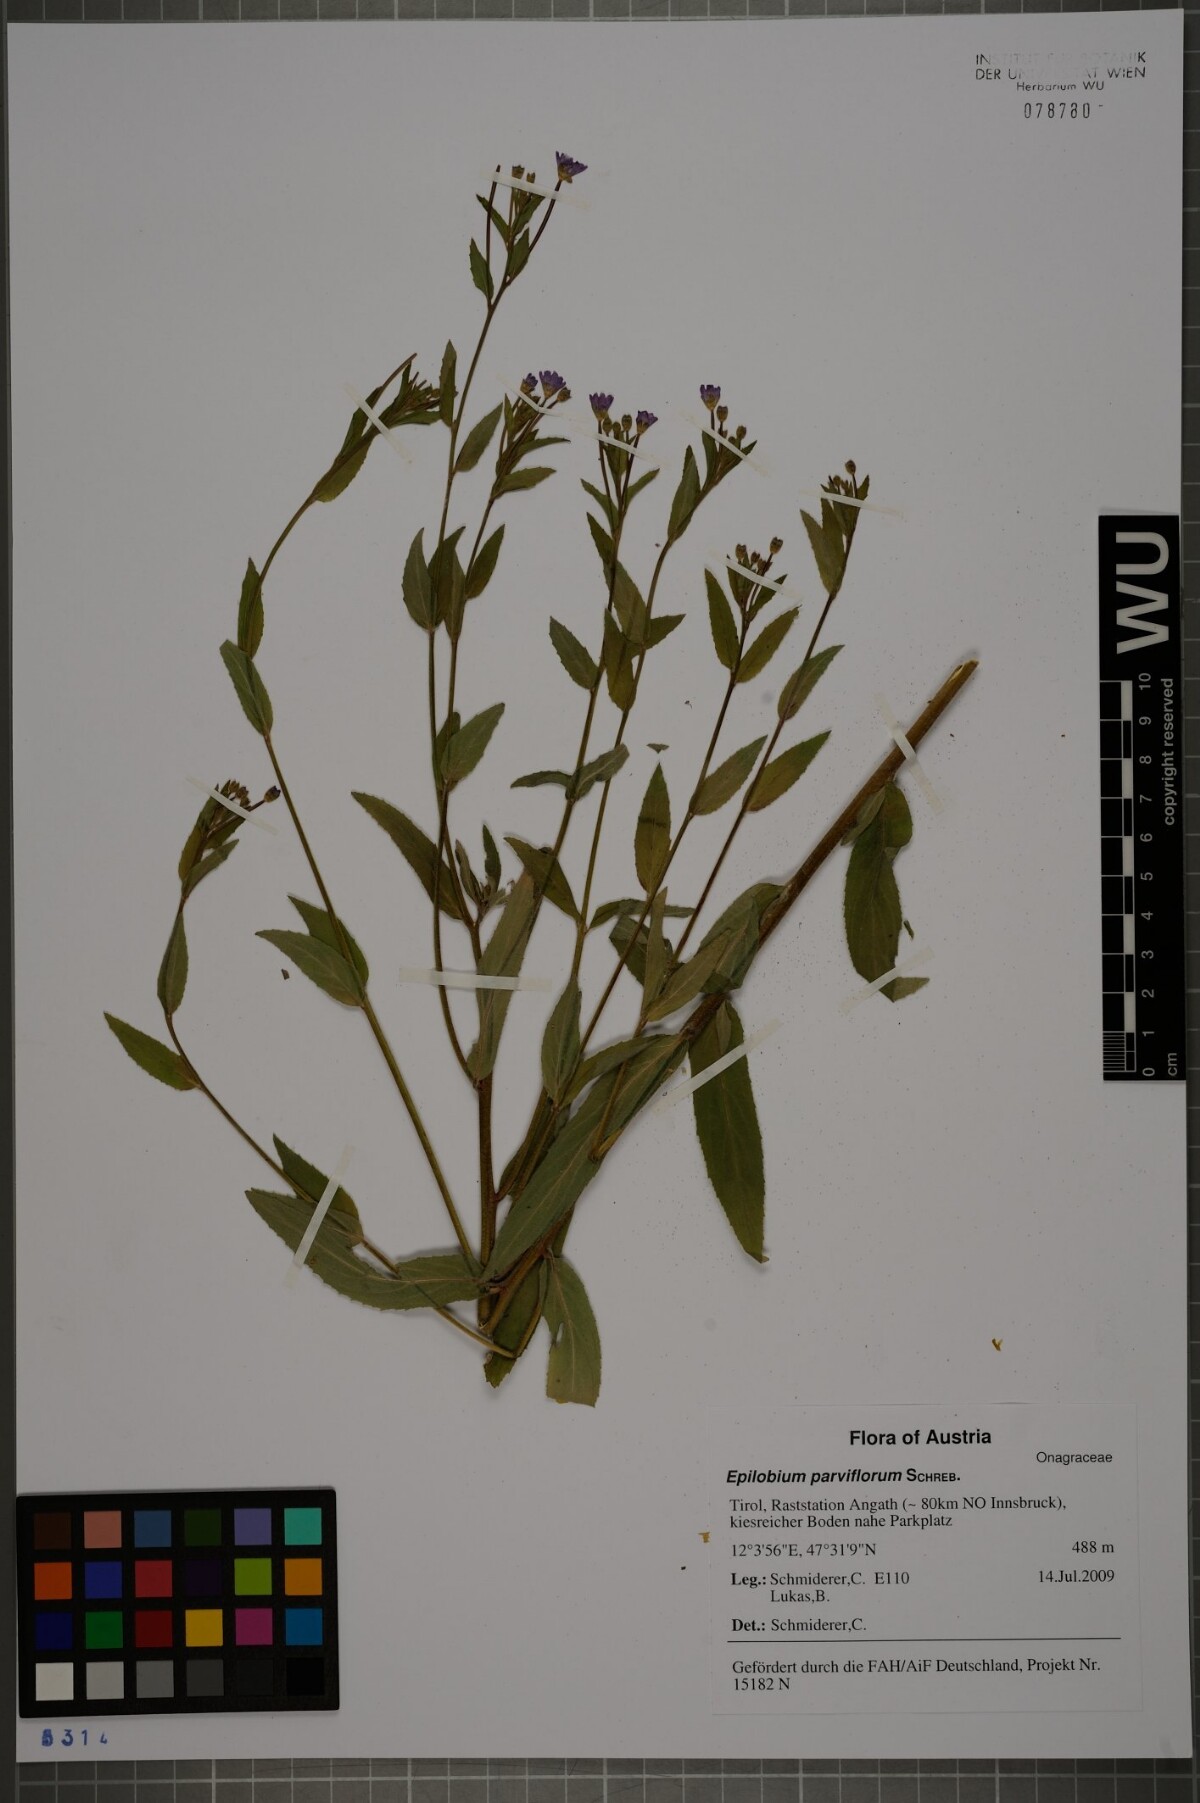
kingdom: Plantae
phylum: Tracheophyta
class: Magnoliopsida
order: Myrtales
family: Onagraceae
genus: Epilobium
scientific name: Epilobium parviflorum
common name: Hoary willowherb
